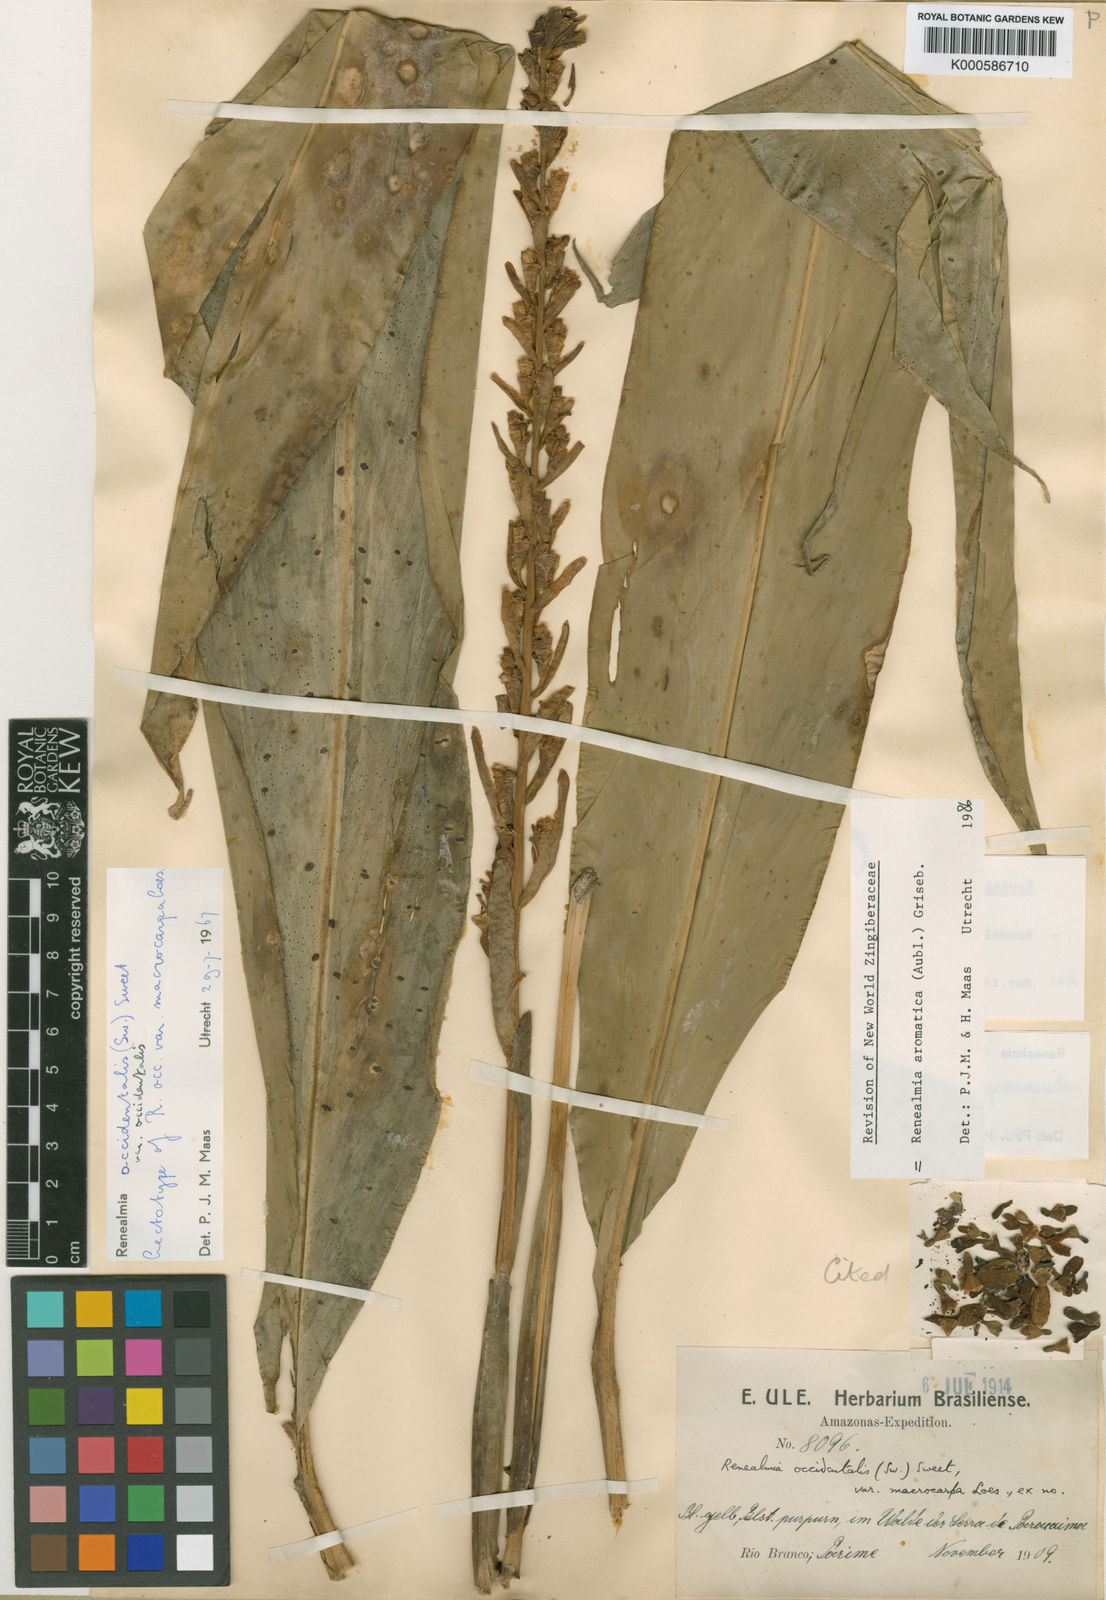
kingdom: Plantae
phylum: Tracheophyta
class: Liliopsida
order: Zingiberales
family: Zingiberaceae
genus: Renealmia
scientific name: Renealmia aromatica
